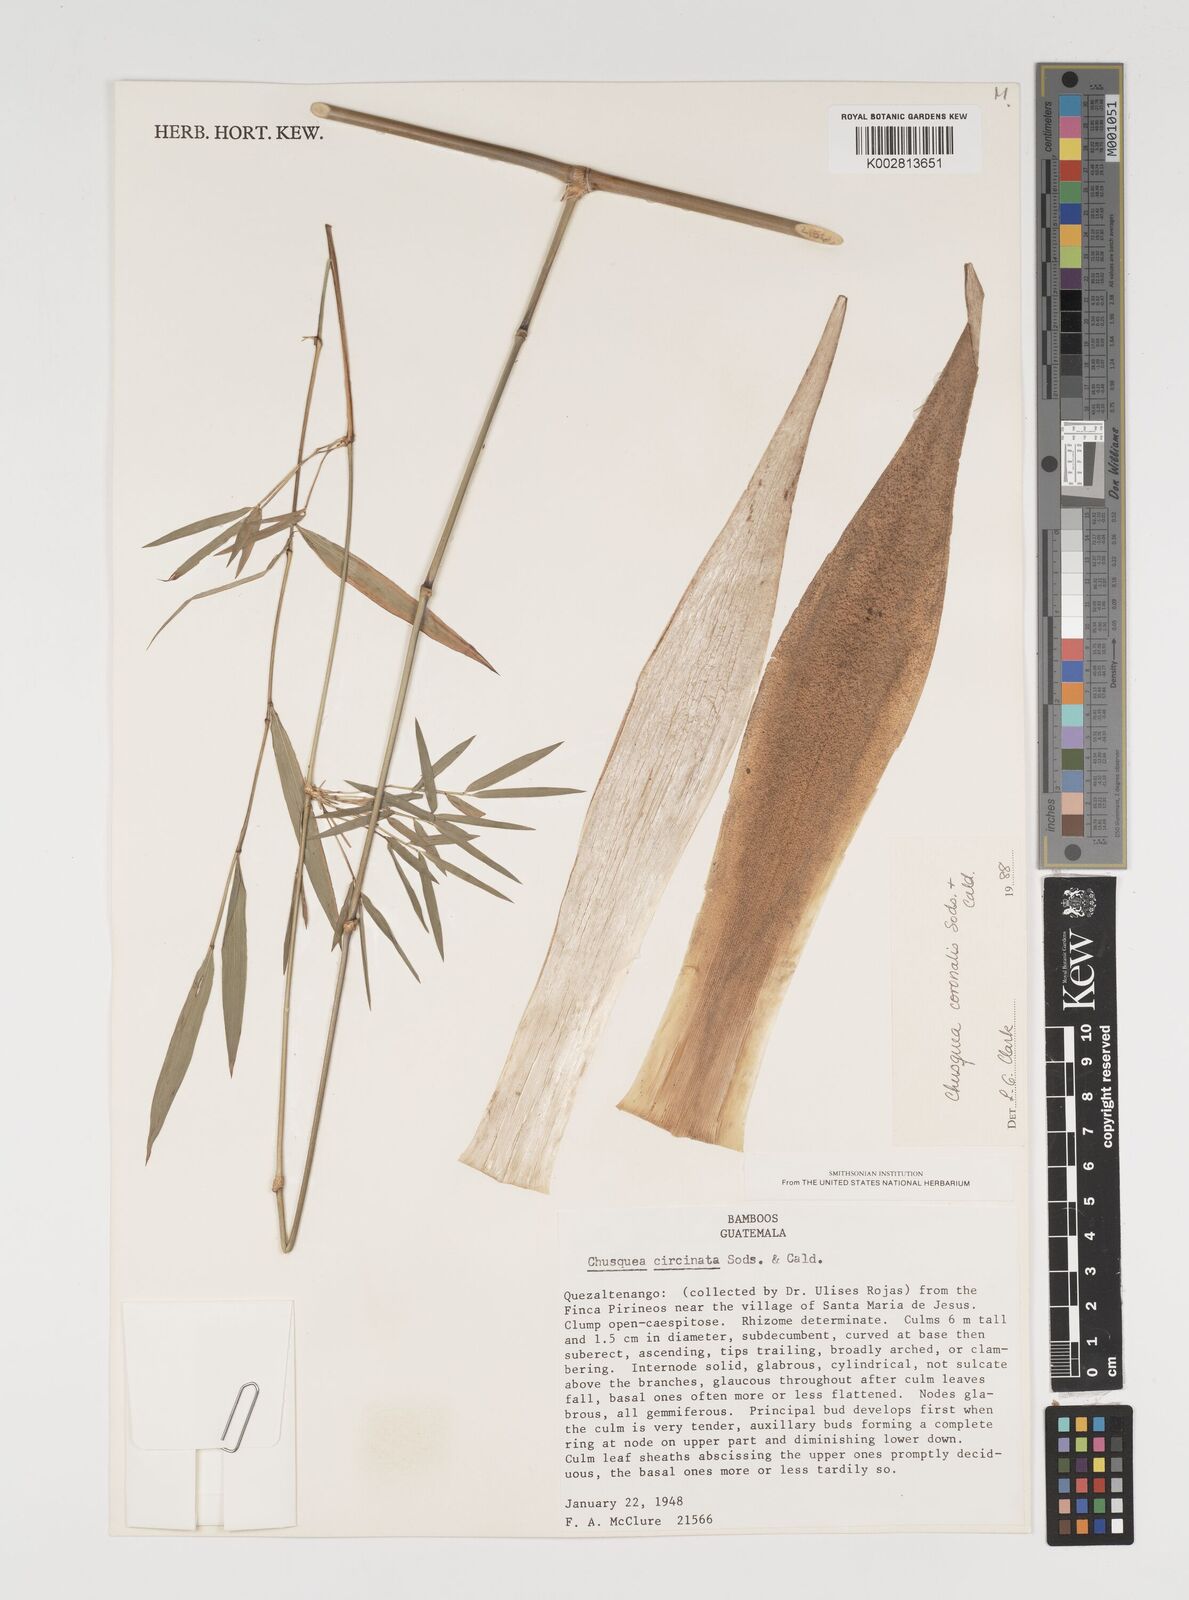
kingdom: Plantae
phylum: Tracheophyta
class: Liliopsida
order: Poales
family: Poaceae
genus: Chusquea
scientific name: Chusquea coronalis
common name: Machris bamboo
